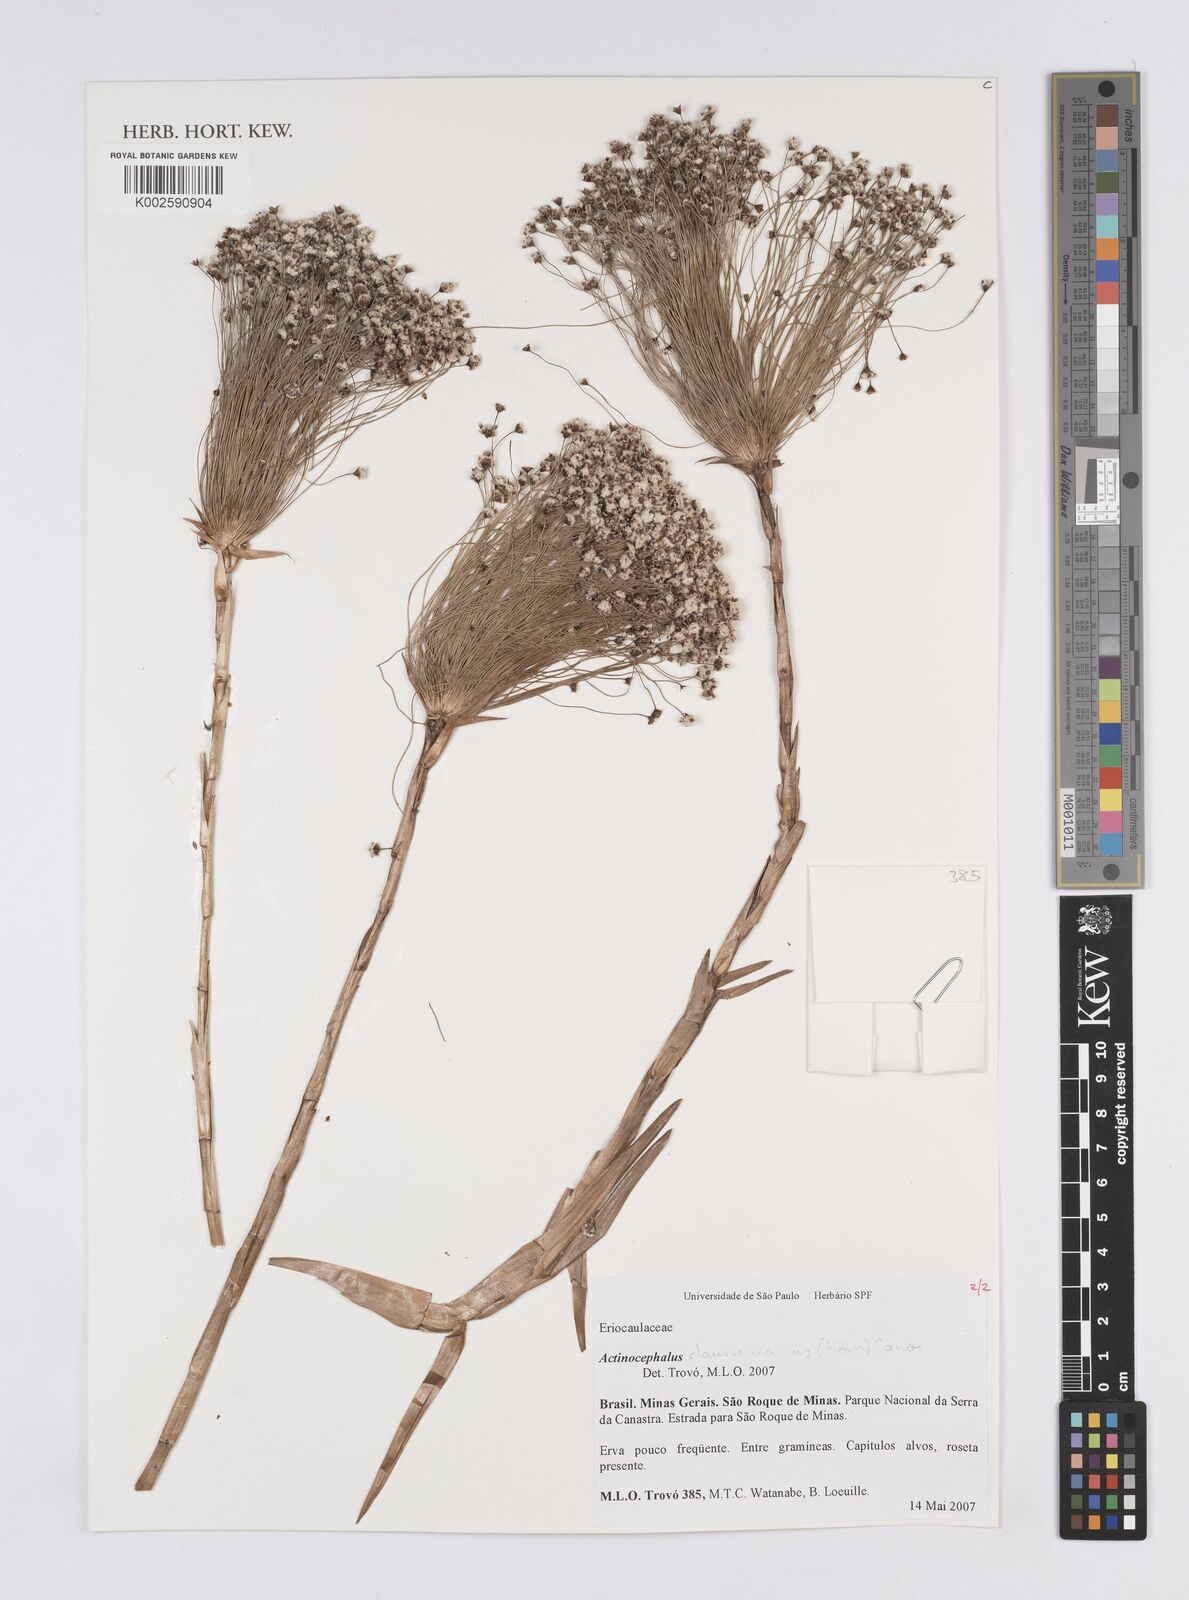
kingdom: Plantae
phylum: Tracheophyta
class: Liliopsida
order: Poales
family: Eriocaulaceae
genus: Paepalanthus
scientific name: Paepalanthus claussenianus
